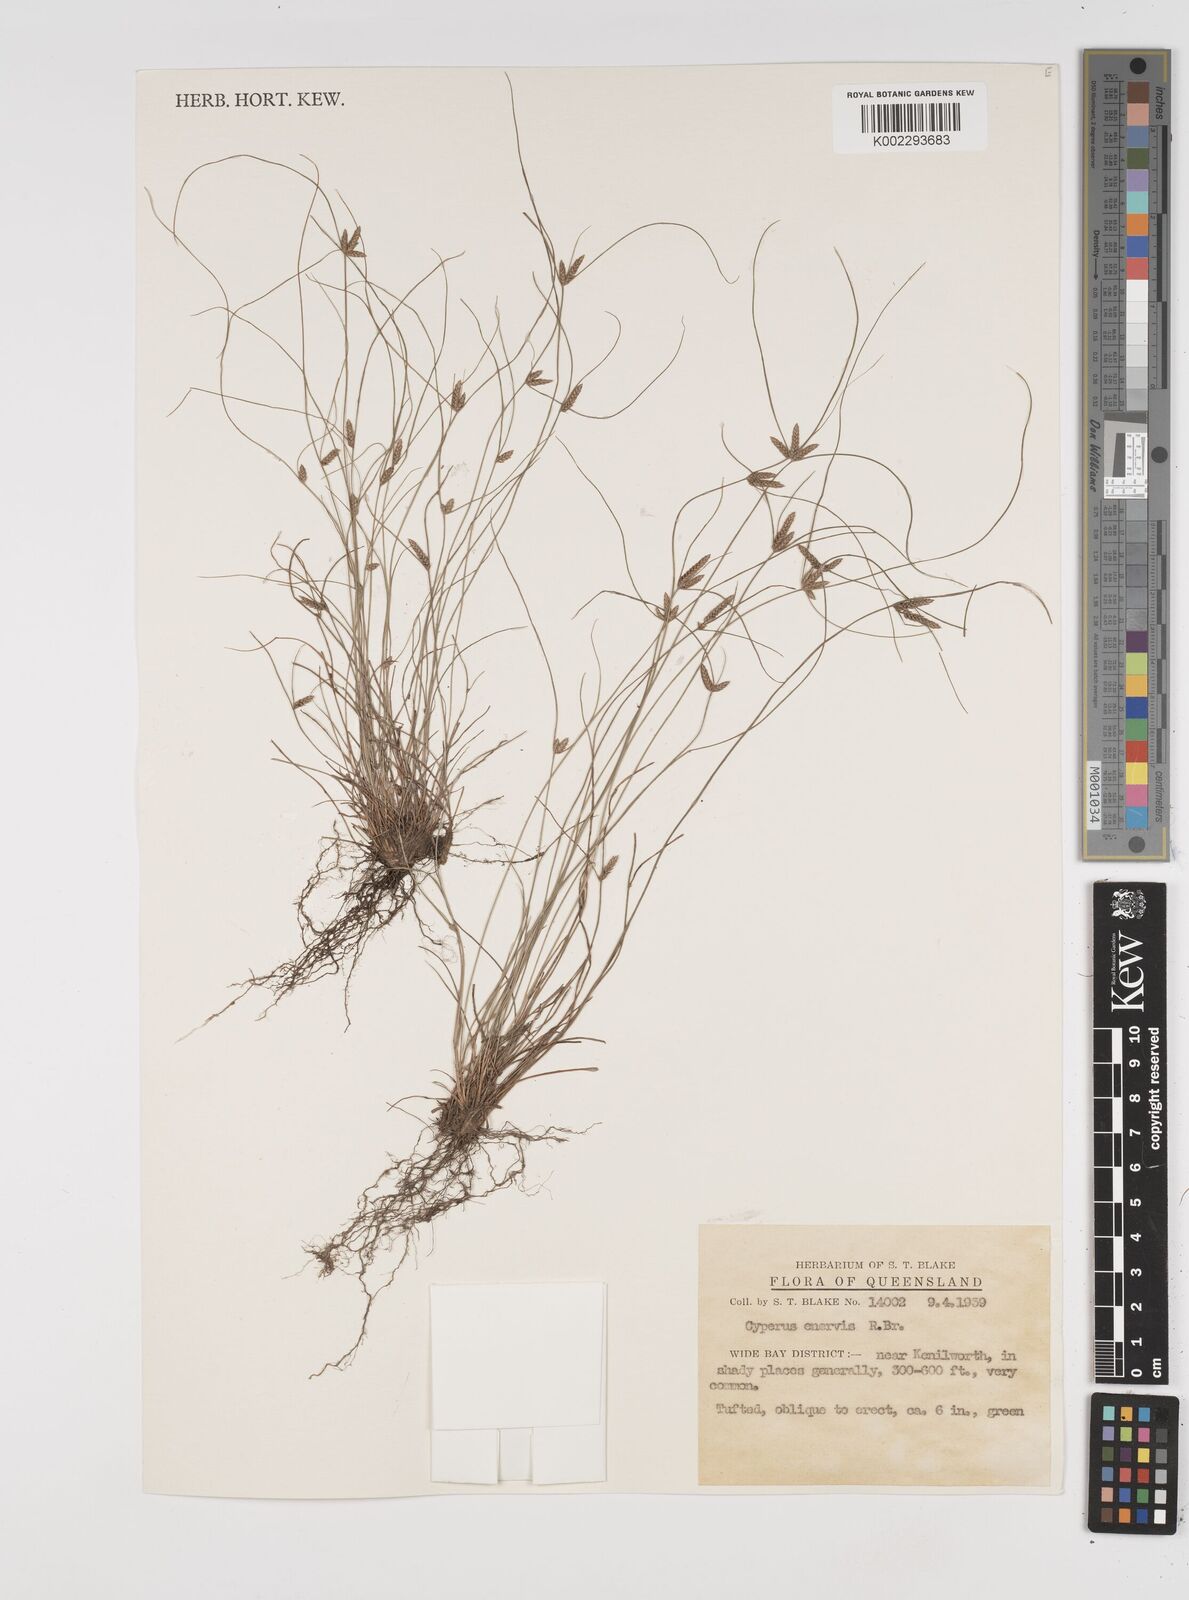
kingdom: Plantae
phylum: Tracheophyta
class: Liliopsida
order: Poales
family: Cyperaceae
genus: Cyperus
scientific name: Cyperus enervis
